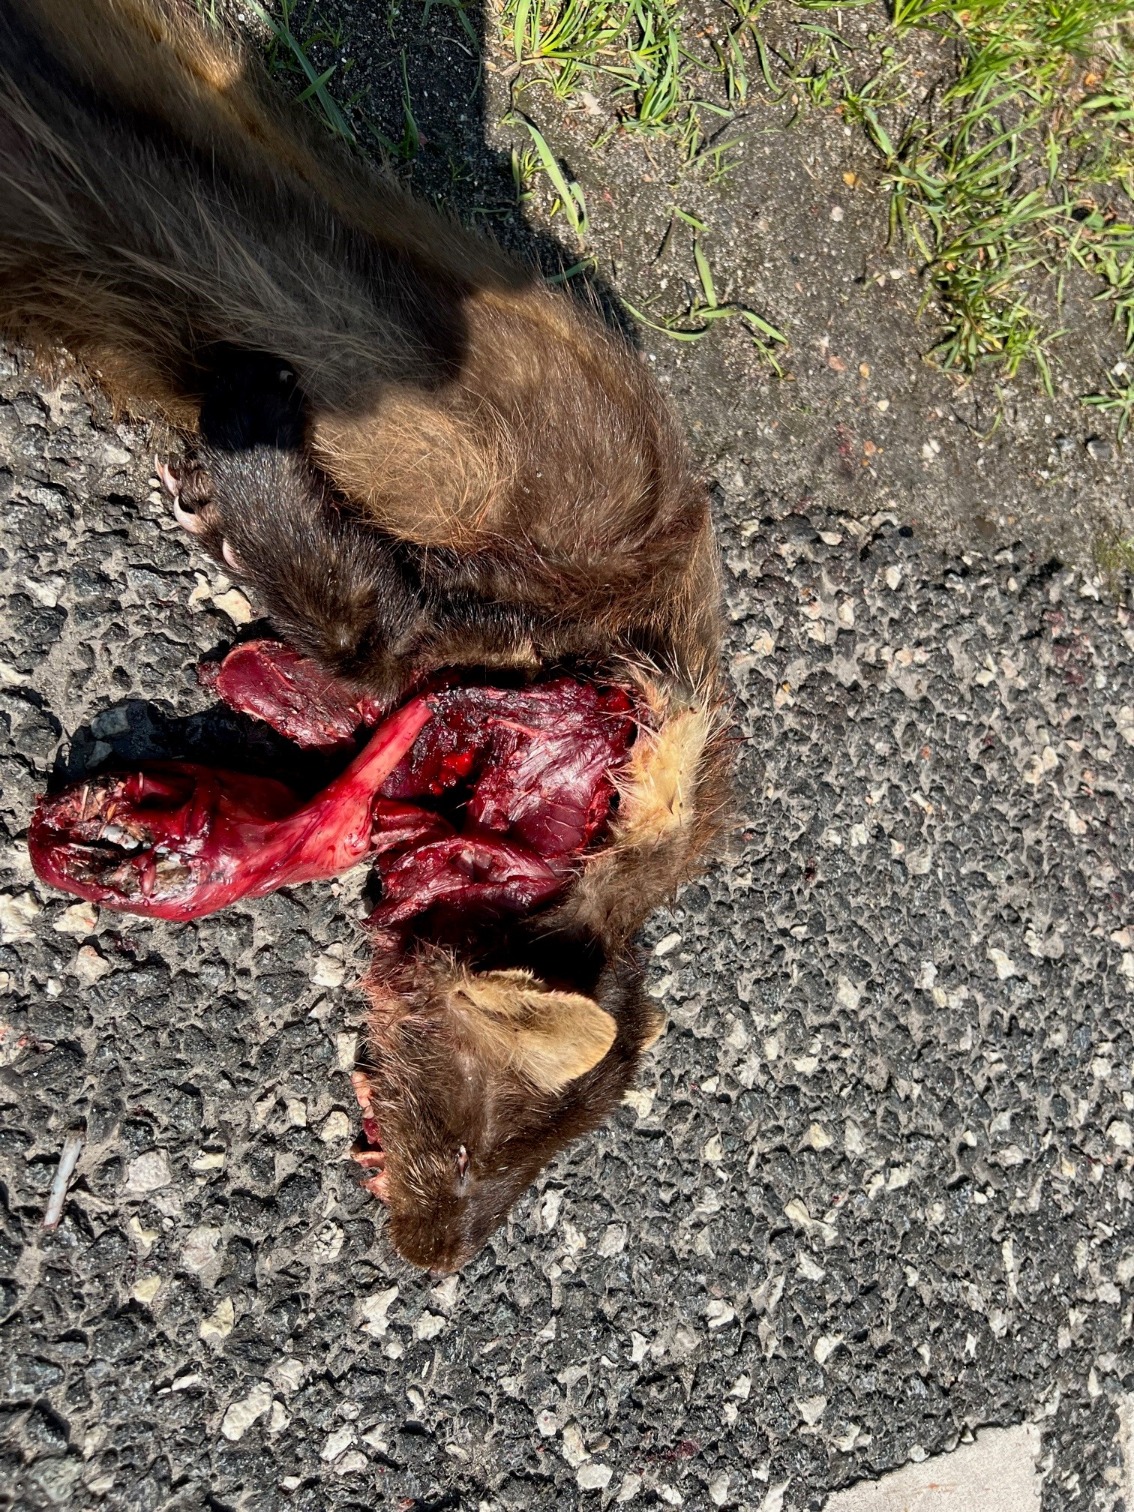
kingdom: Animalia
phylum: Chordata
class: Mammalia
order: Carnivora
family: Mustelidae
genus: Martes
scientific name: Martes martes
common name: Skovmår
